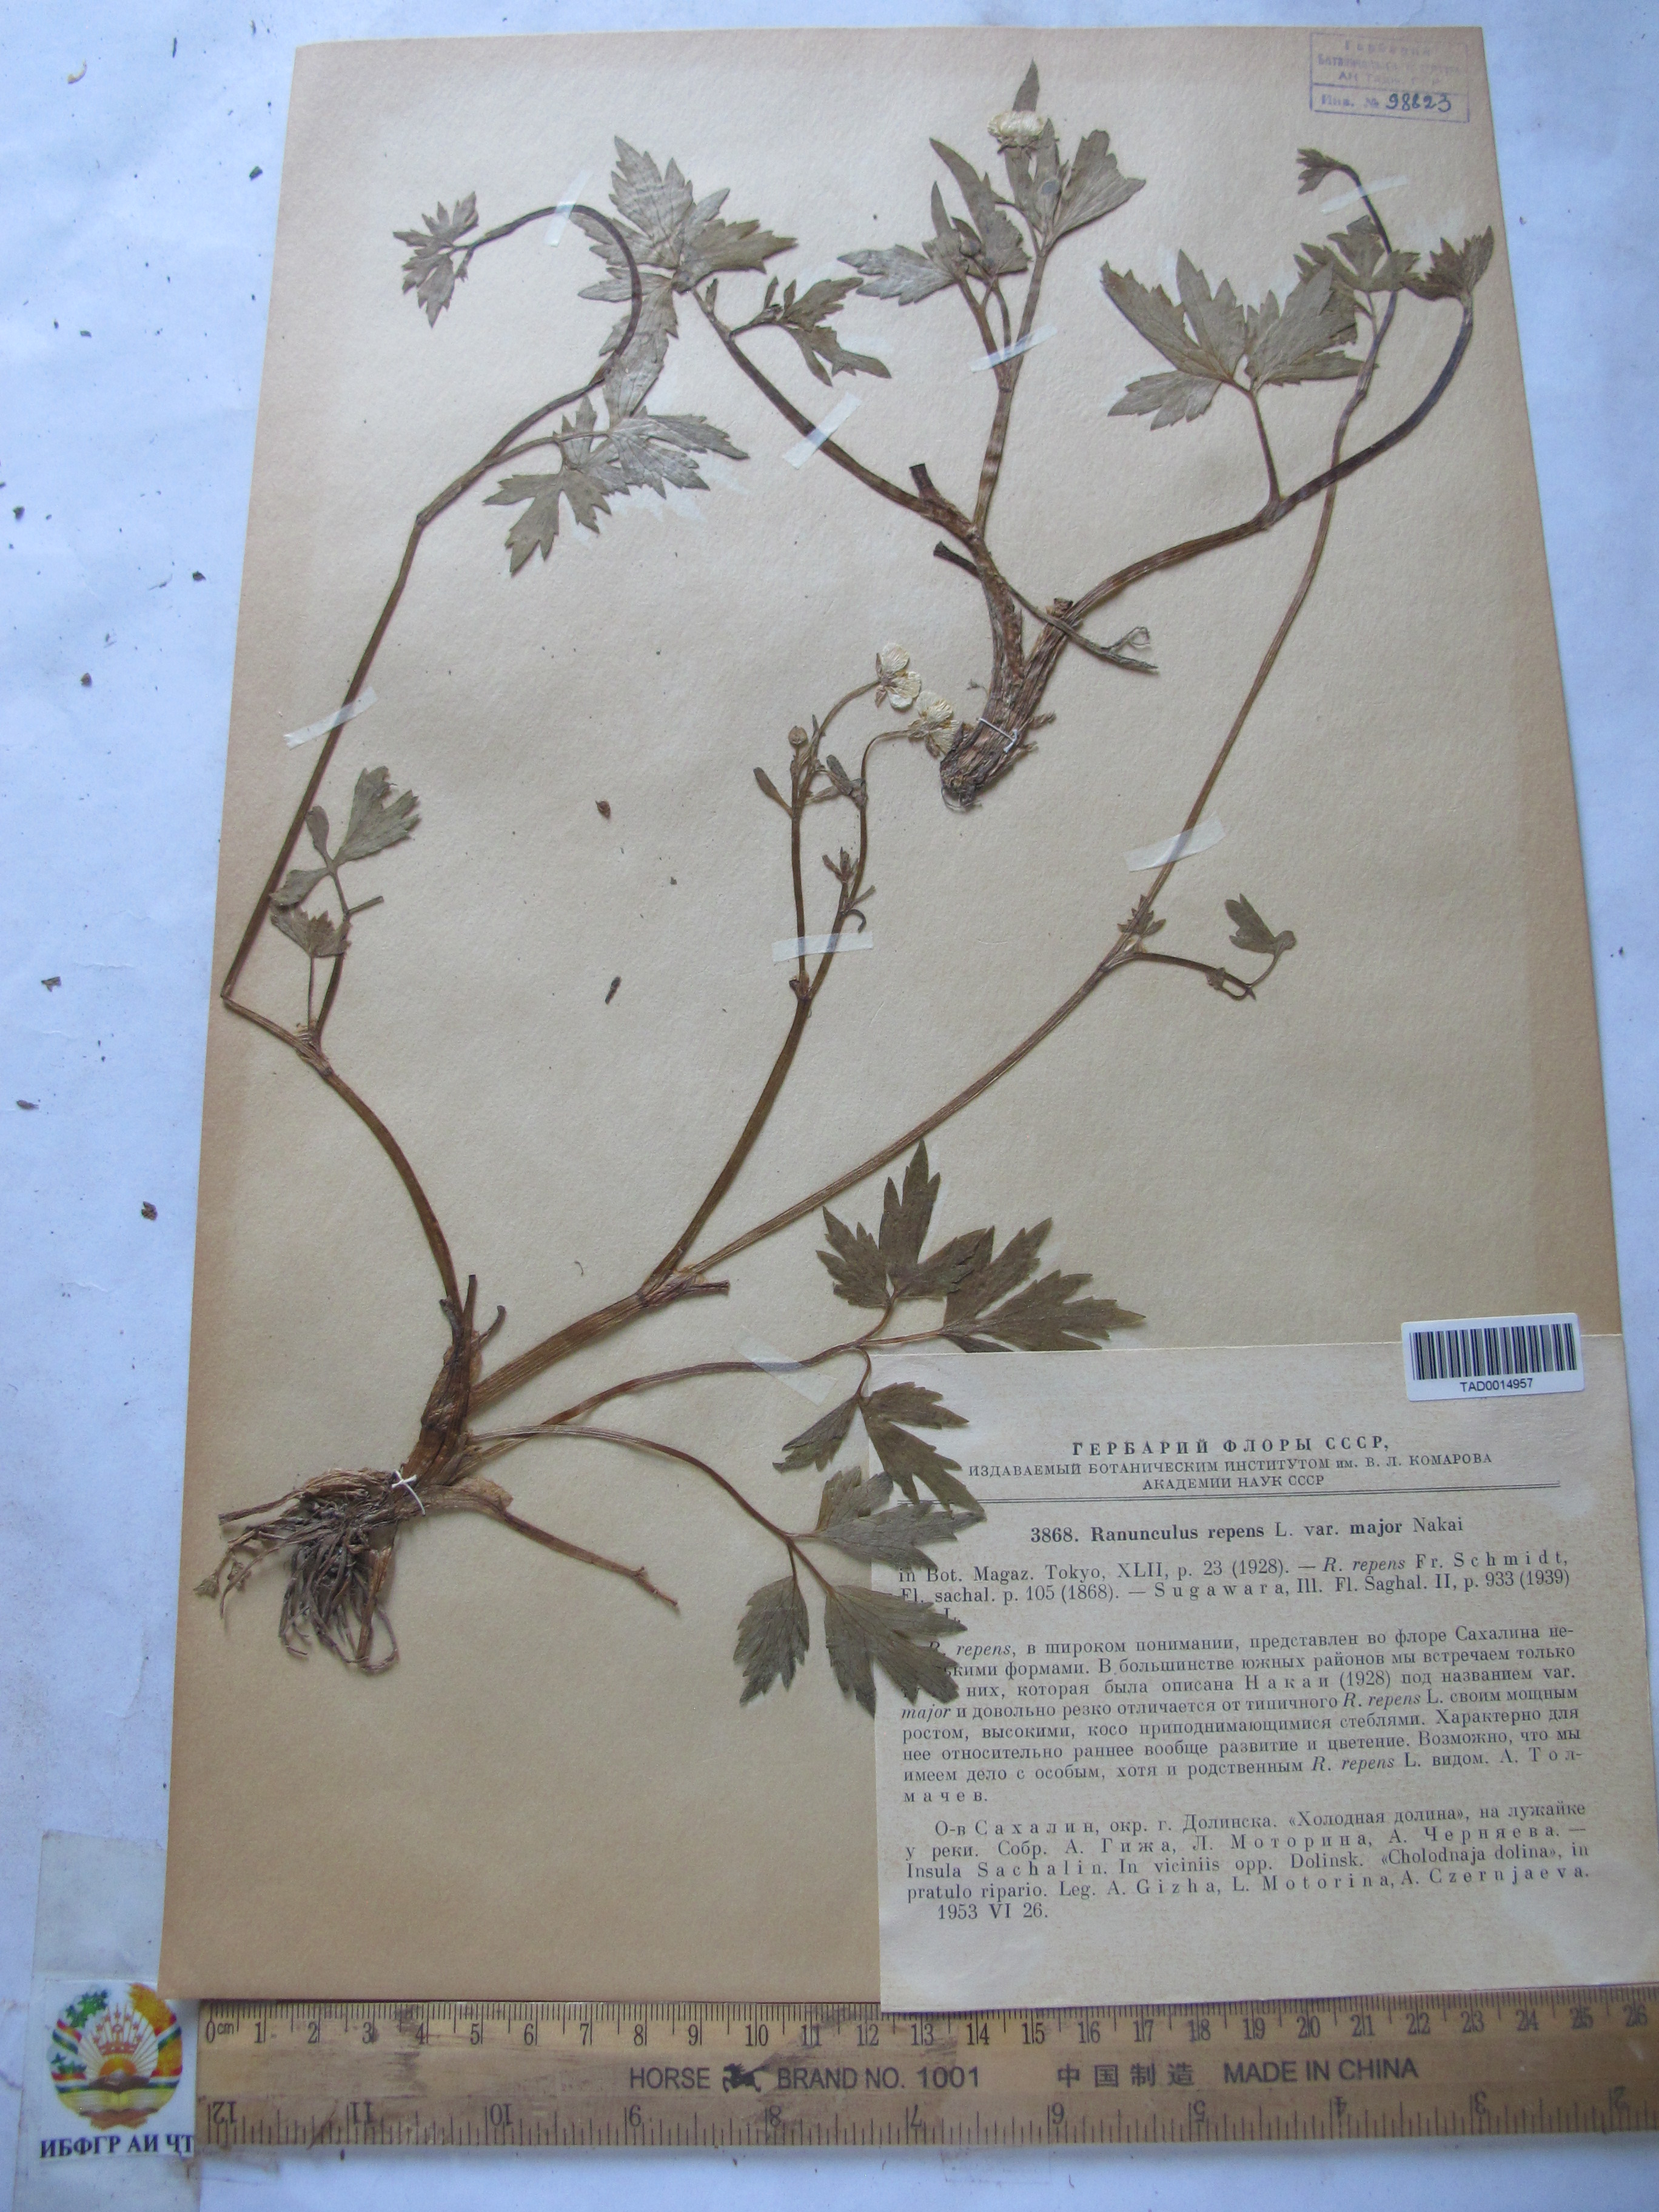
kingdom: Plantae
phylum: Tracheophyta
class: Magnoliopsida
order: Ranunculales
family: Ranunculaceae
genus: Ranunculus
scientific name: Ranunculus repens
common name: Creeping buttercup
